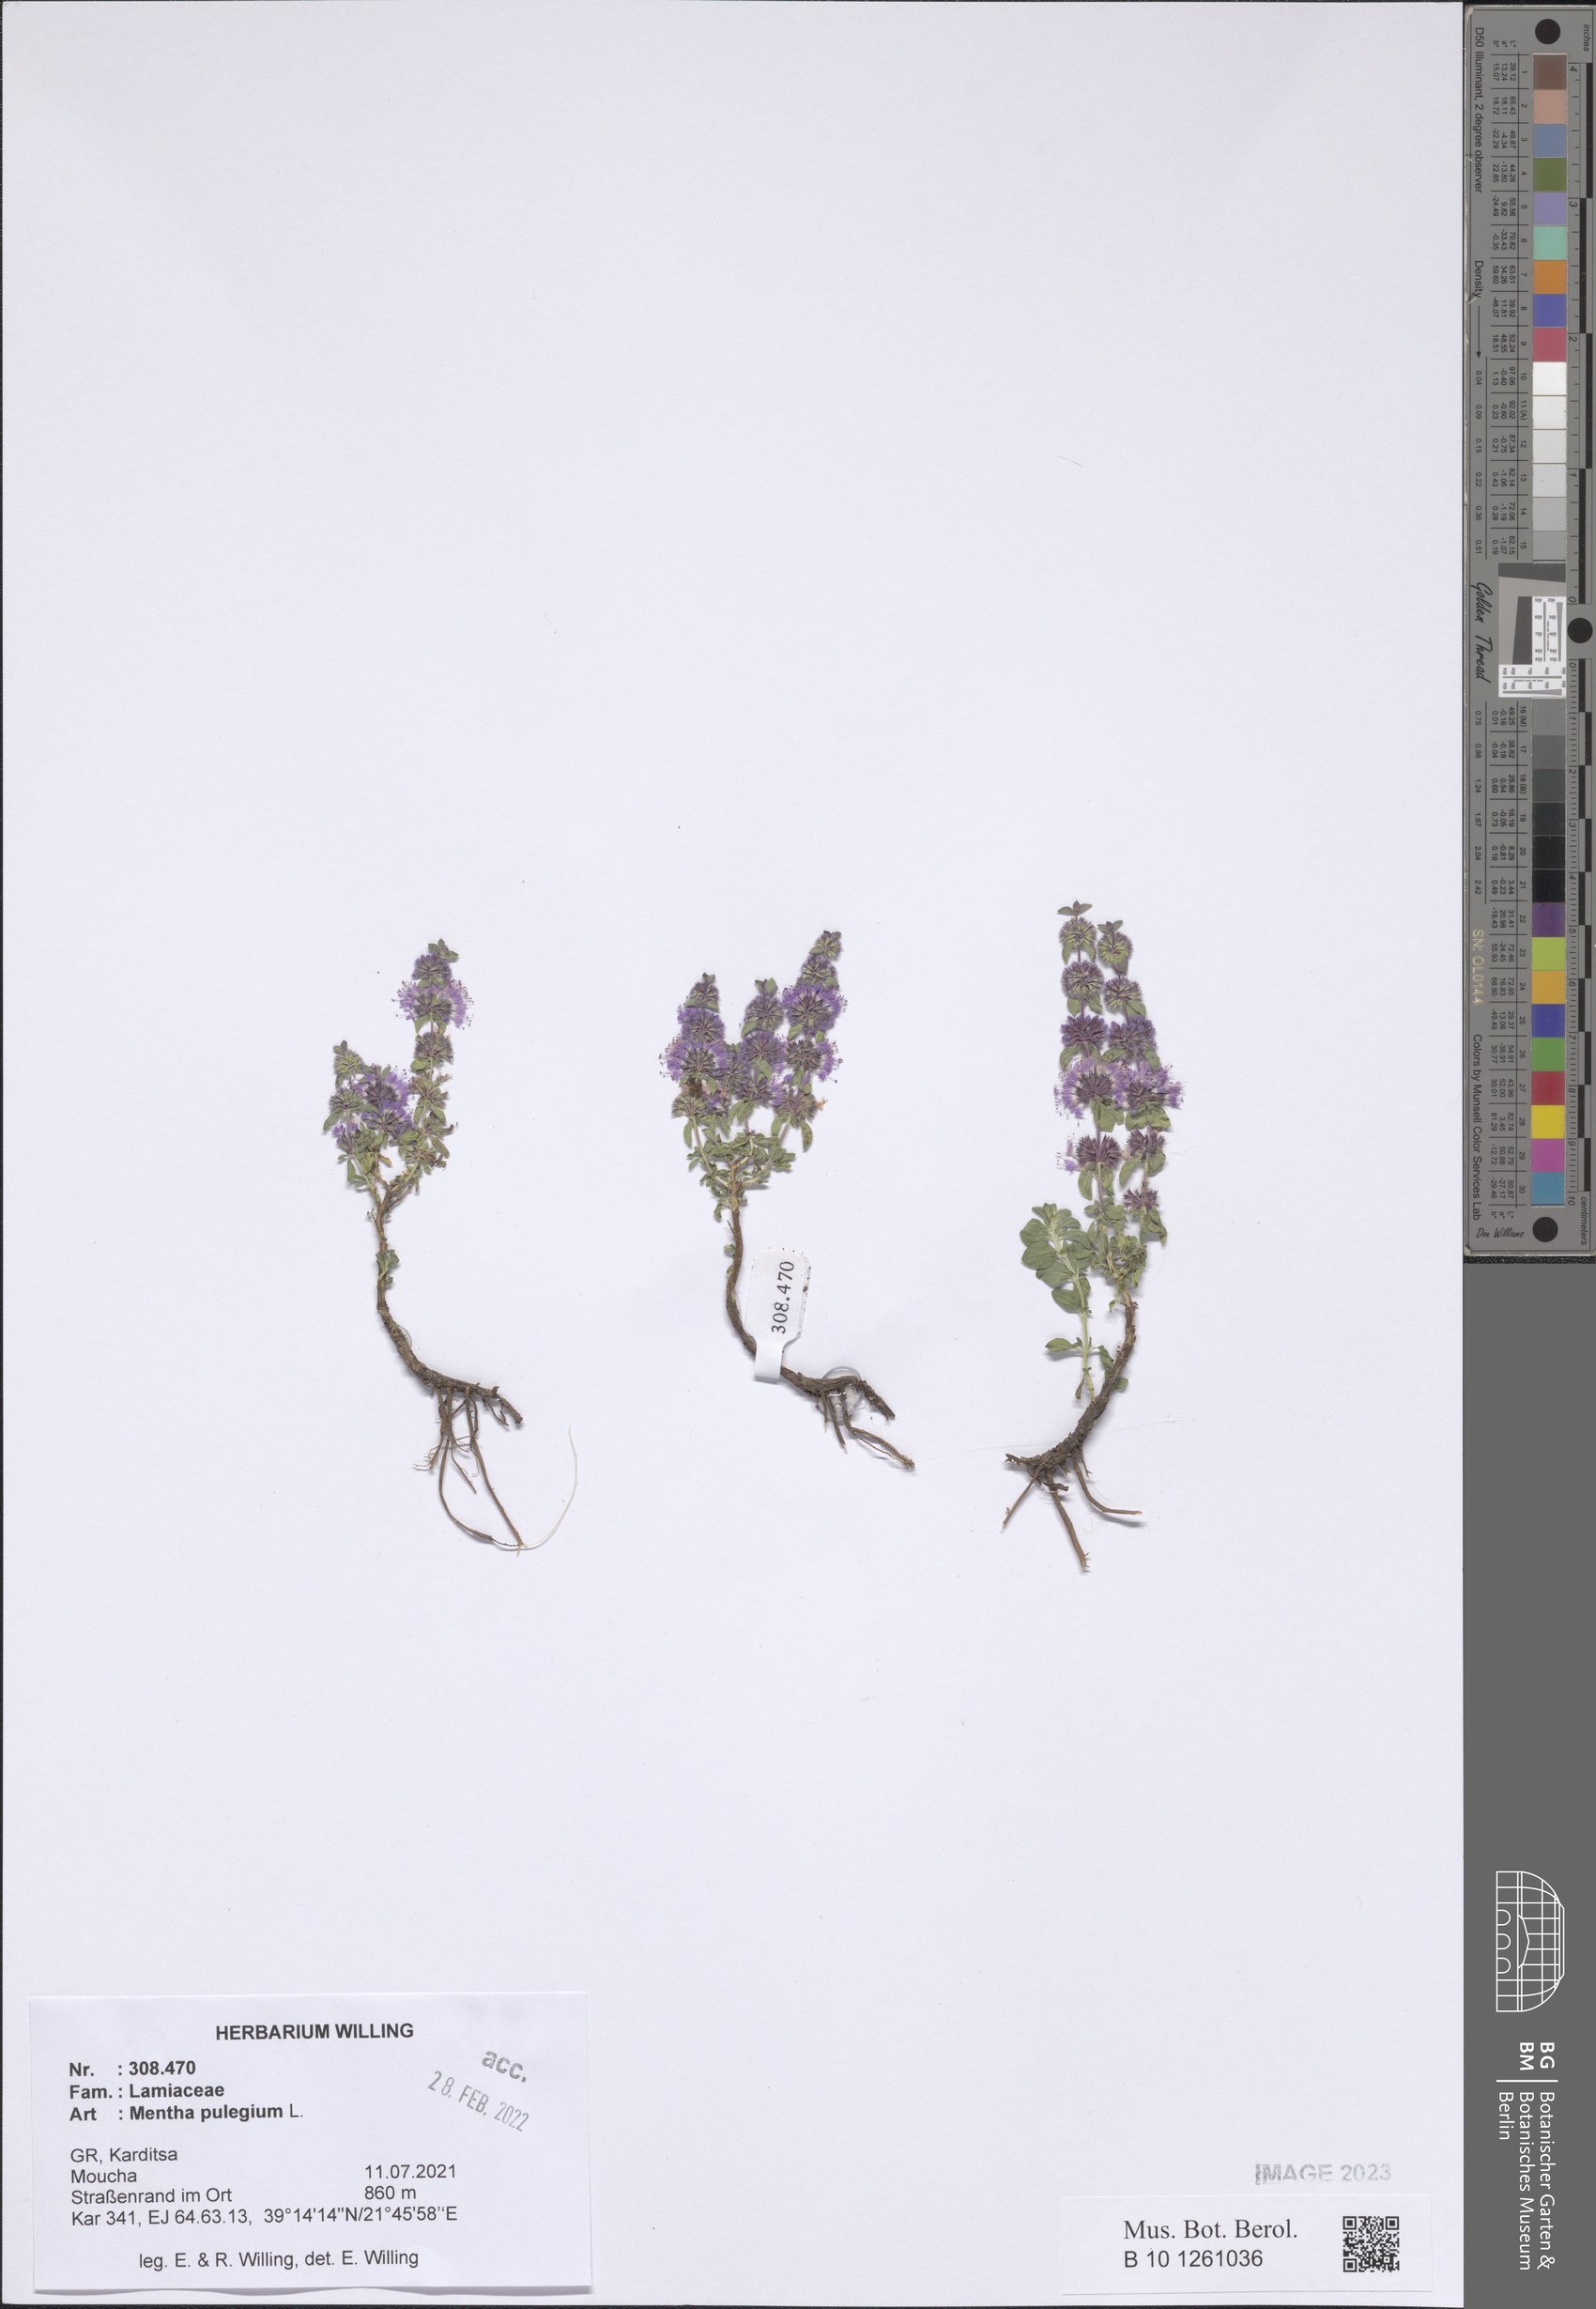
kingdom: Plantae
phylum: Tracheophyta
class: Magnoliopsida
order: Lamiales
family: Lamiaceae
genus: Mentha
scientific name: Mentha pulegium
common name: Pennyroyal
